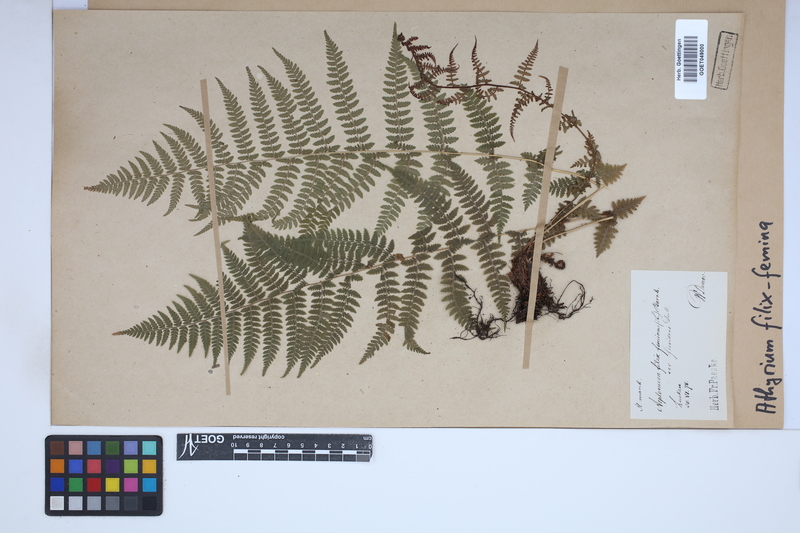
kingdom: Plantae
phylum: Tracheophyta
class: Polypodiopsida
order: Polypodiales
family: Athyriaceae
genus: Athyrium
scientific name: Athyrium filix-femina
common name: Lady fern
